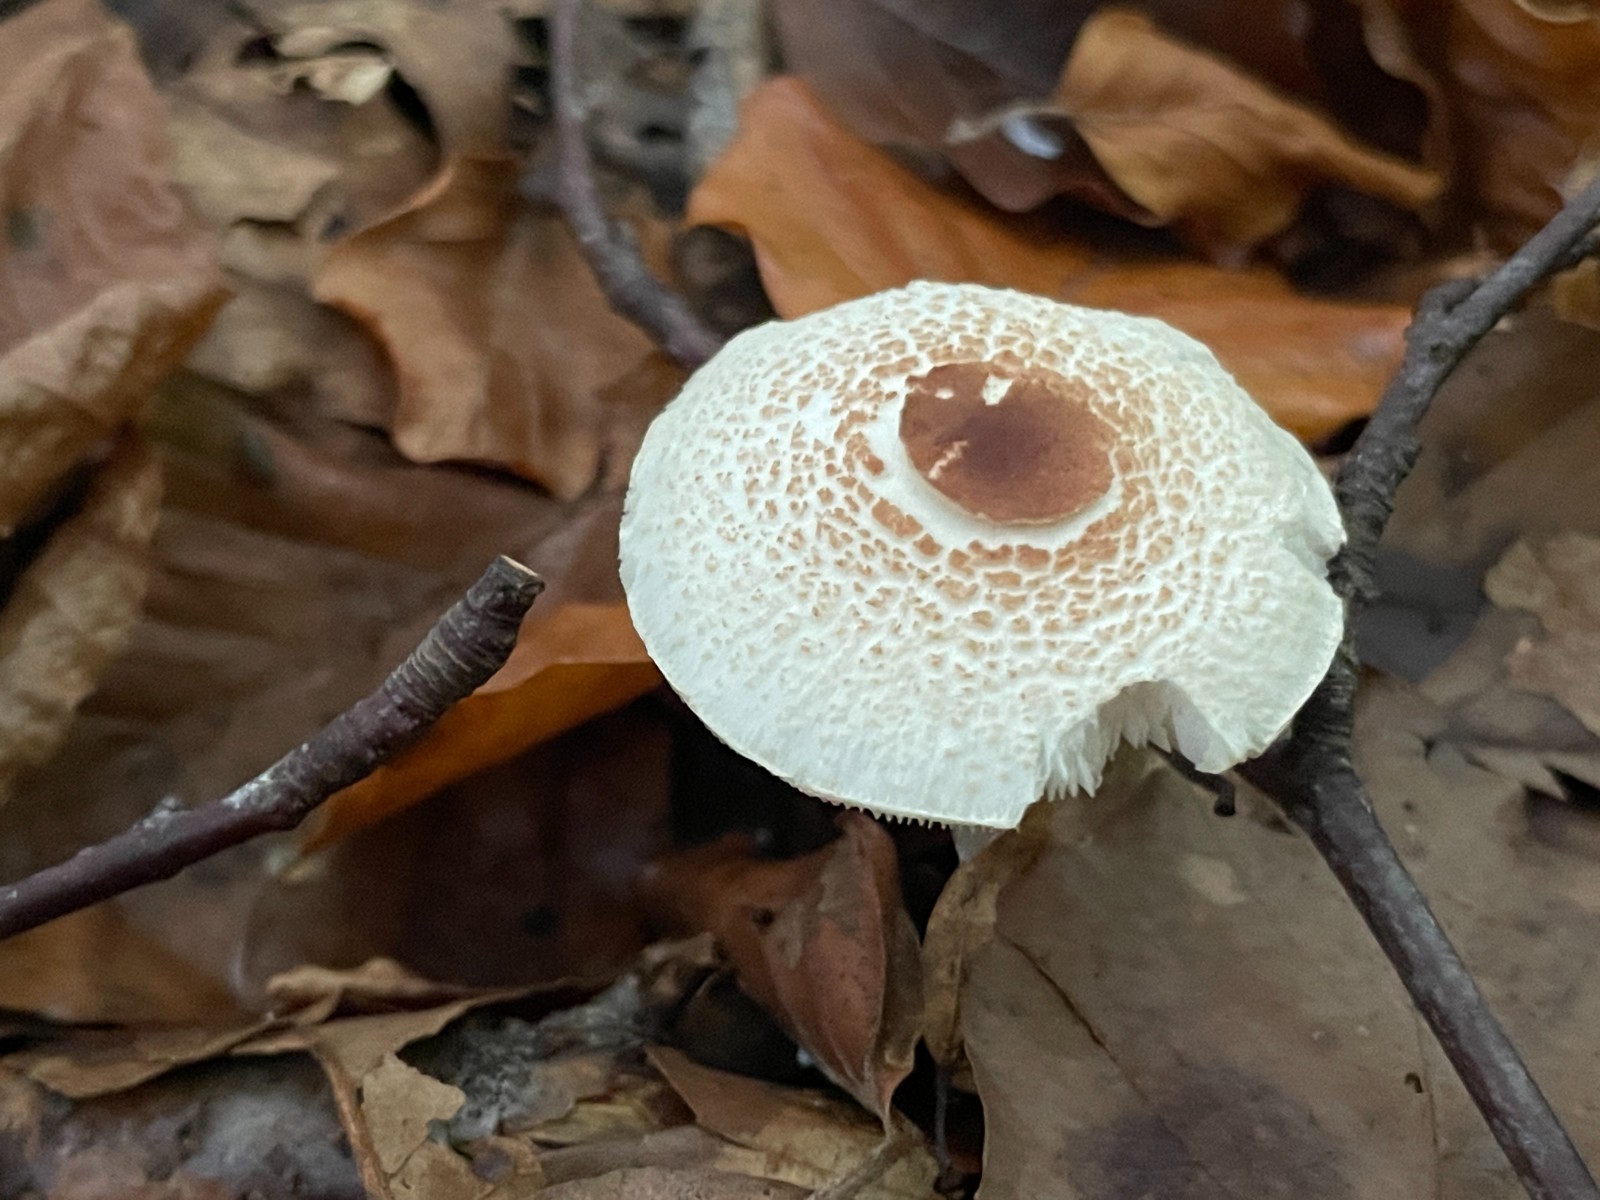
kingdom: Fungi
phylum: Basidiomycota
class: Agaricomycetes
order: Agaricales
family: Agaricaceae
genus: Lepiota
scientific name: Lepiota cristata
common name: stinkende parasolhat
